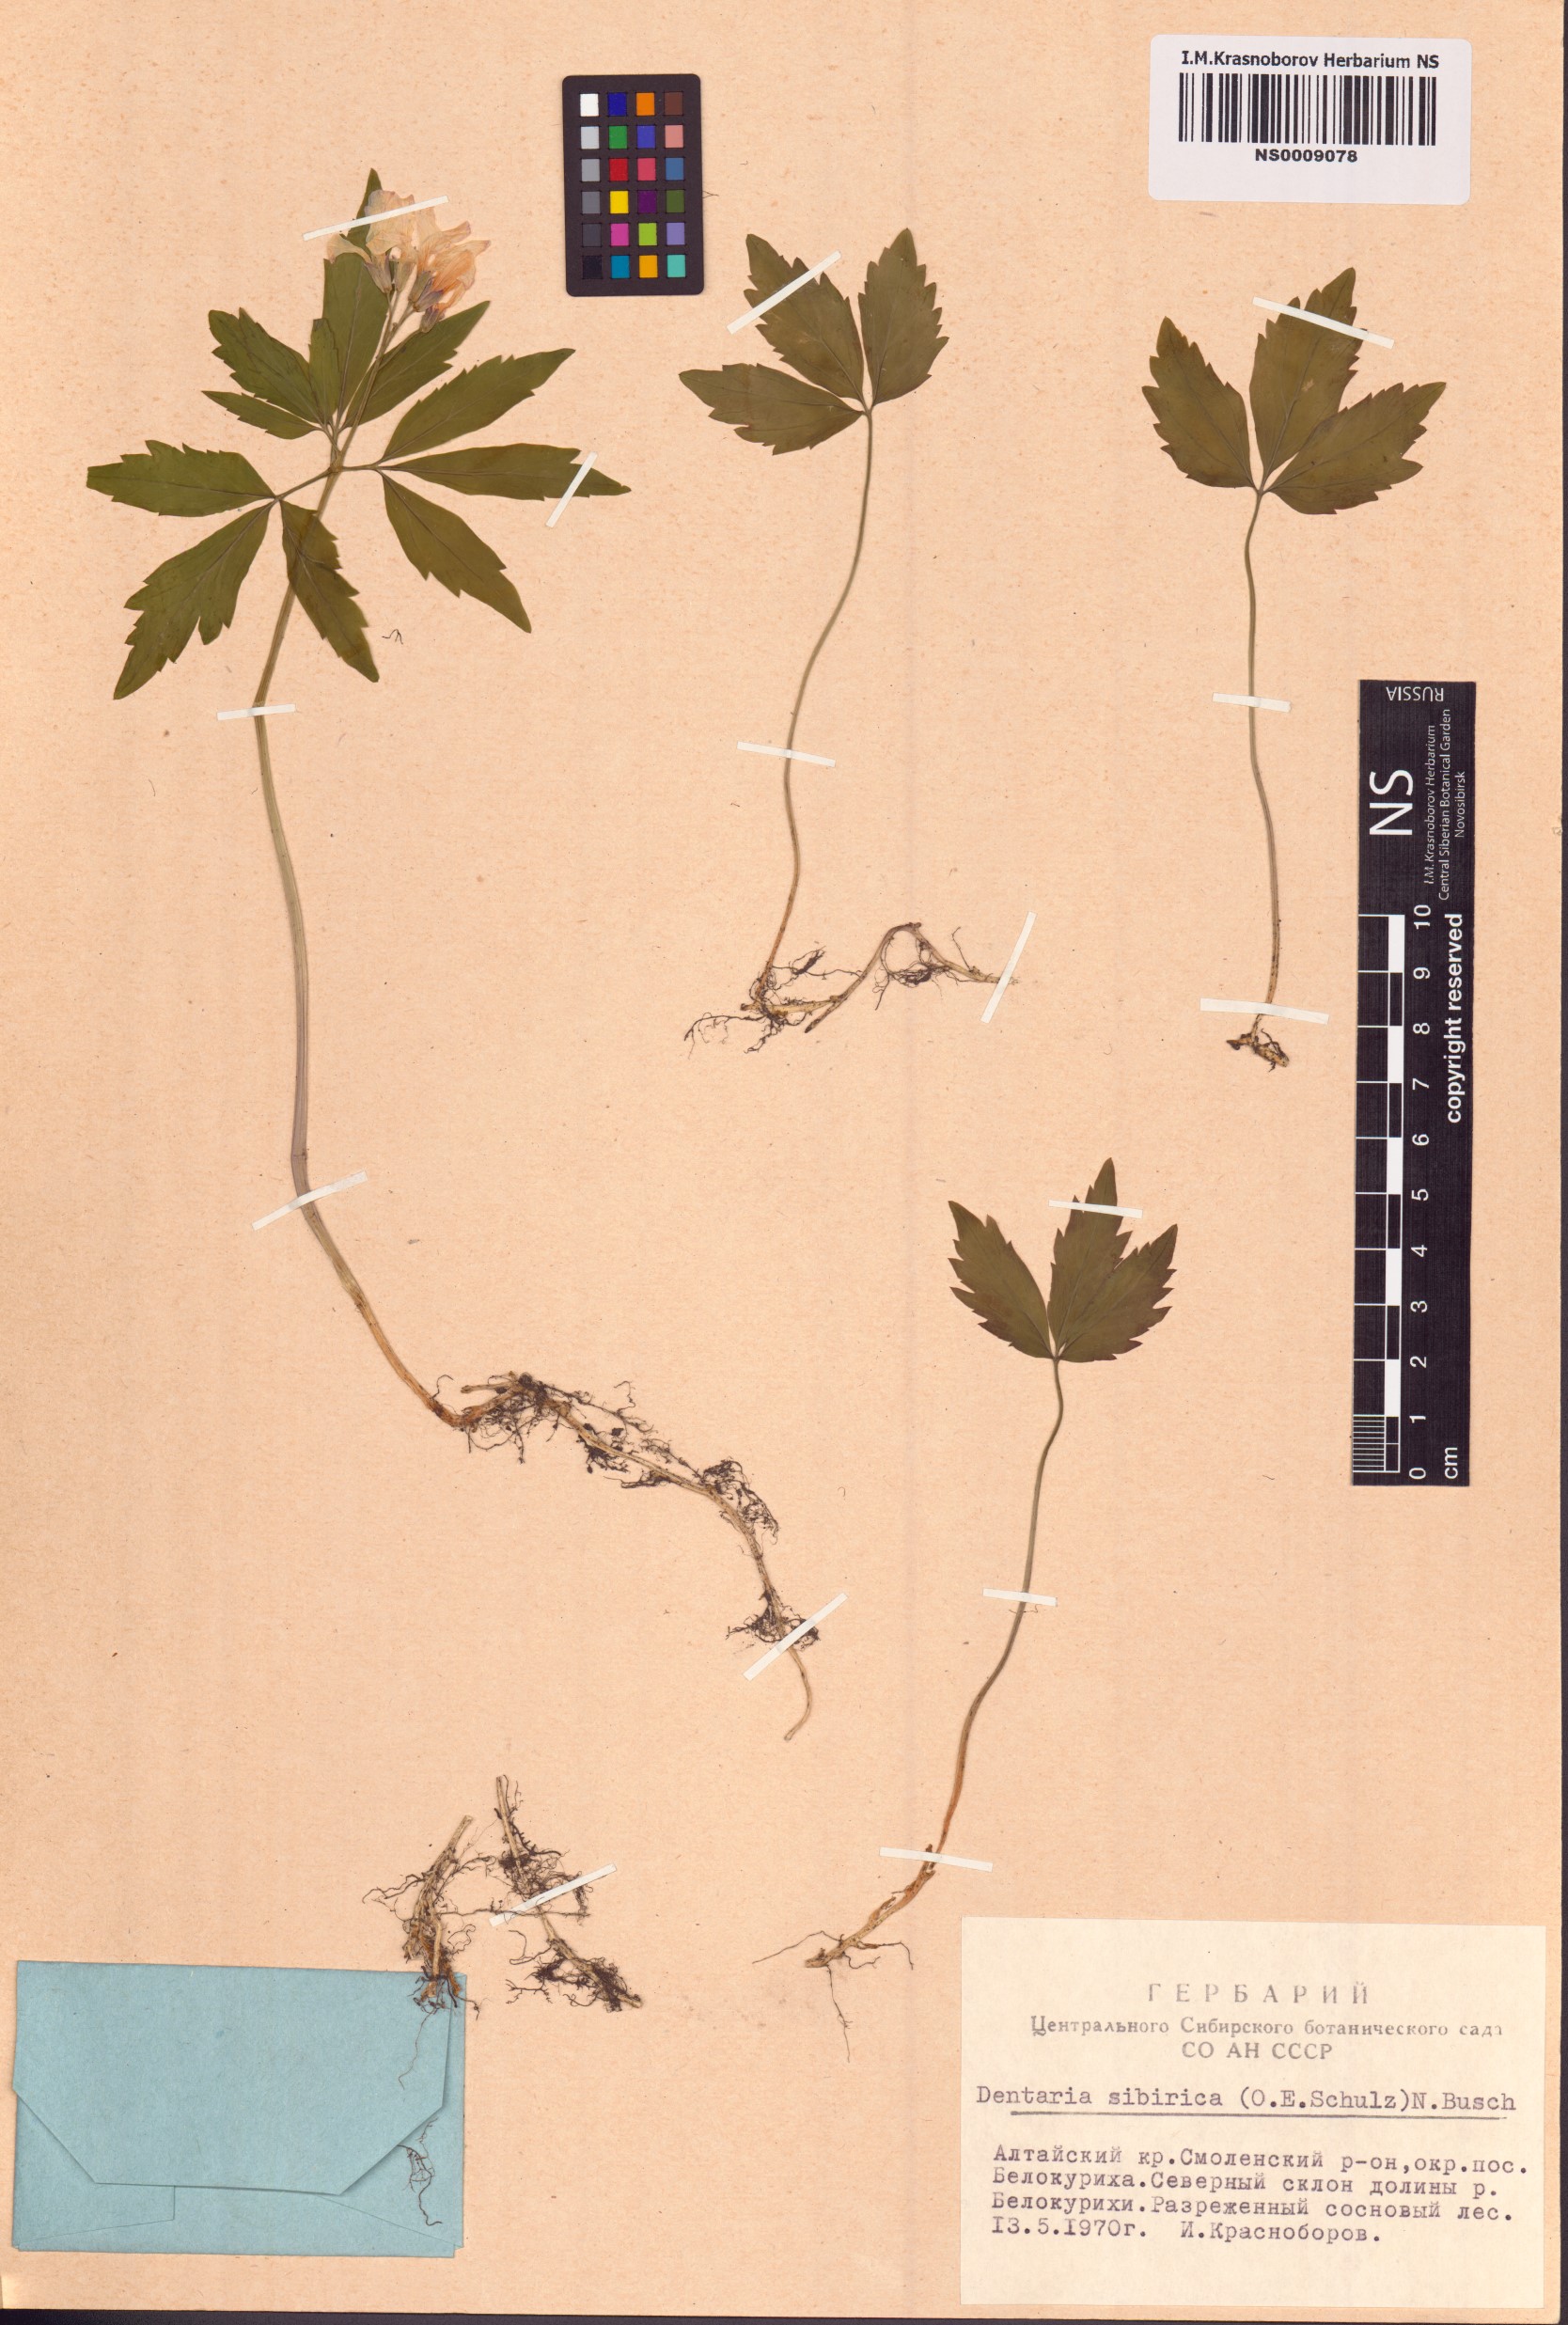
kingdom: Plantae
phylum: Tracheophyta
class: Magnoliopsida
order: Brassicales
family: Brassicaceae
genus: Cardamine
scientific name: Cardamine glanduligera
